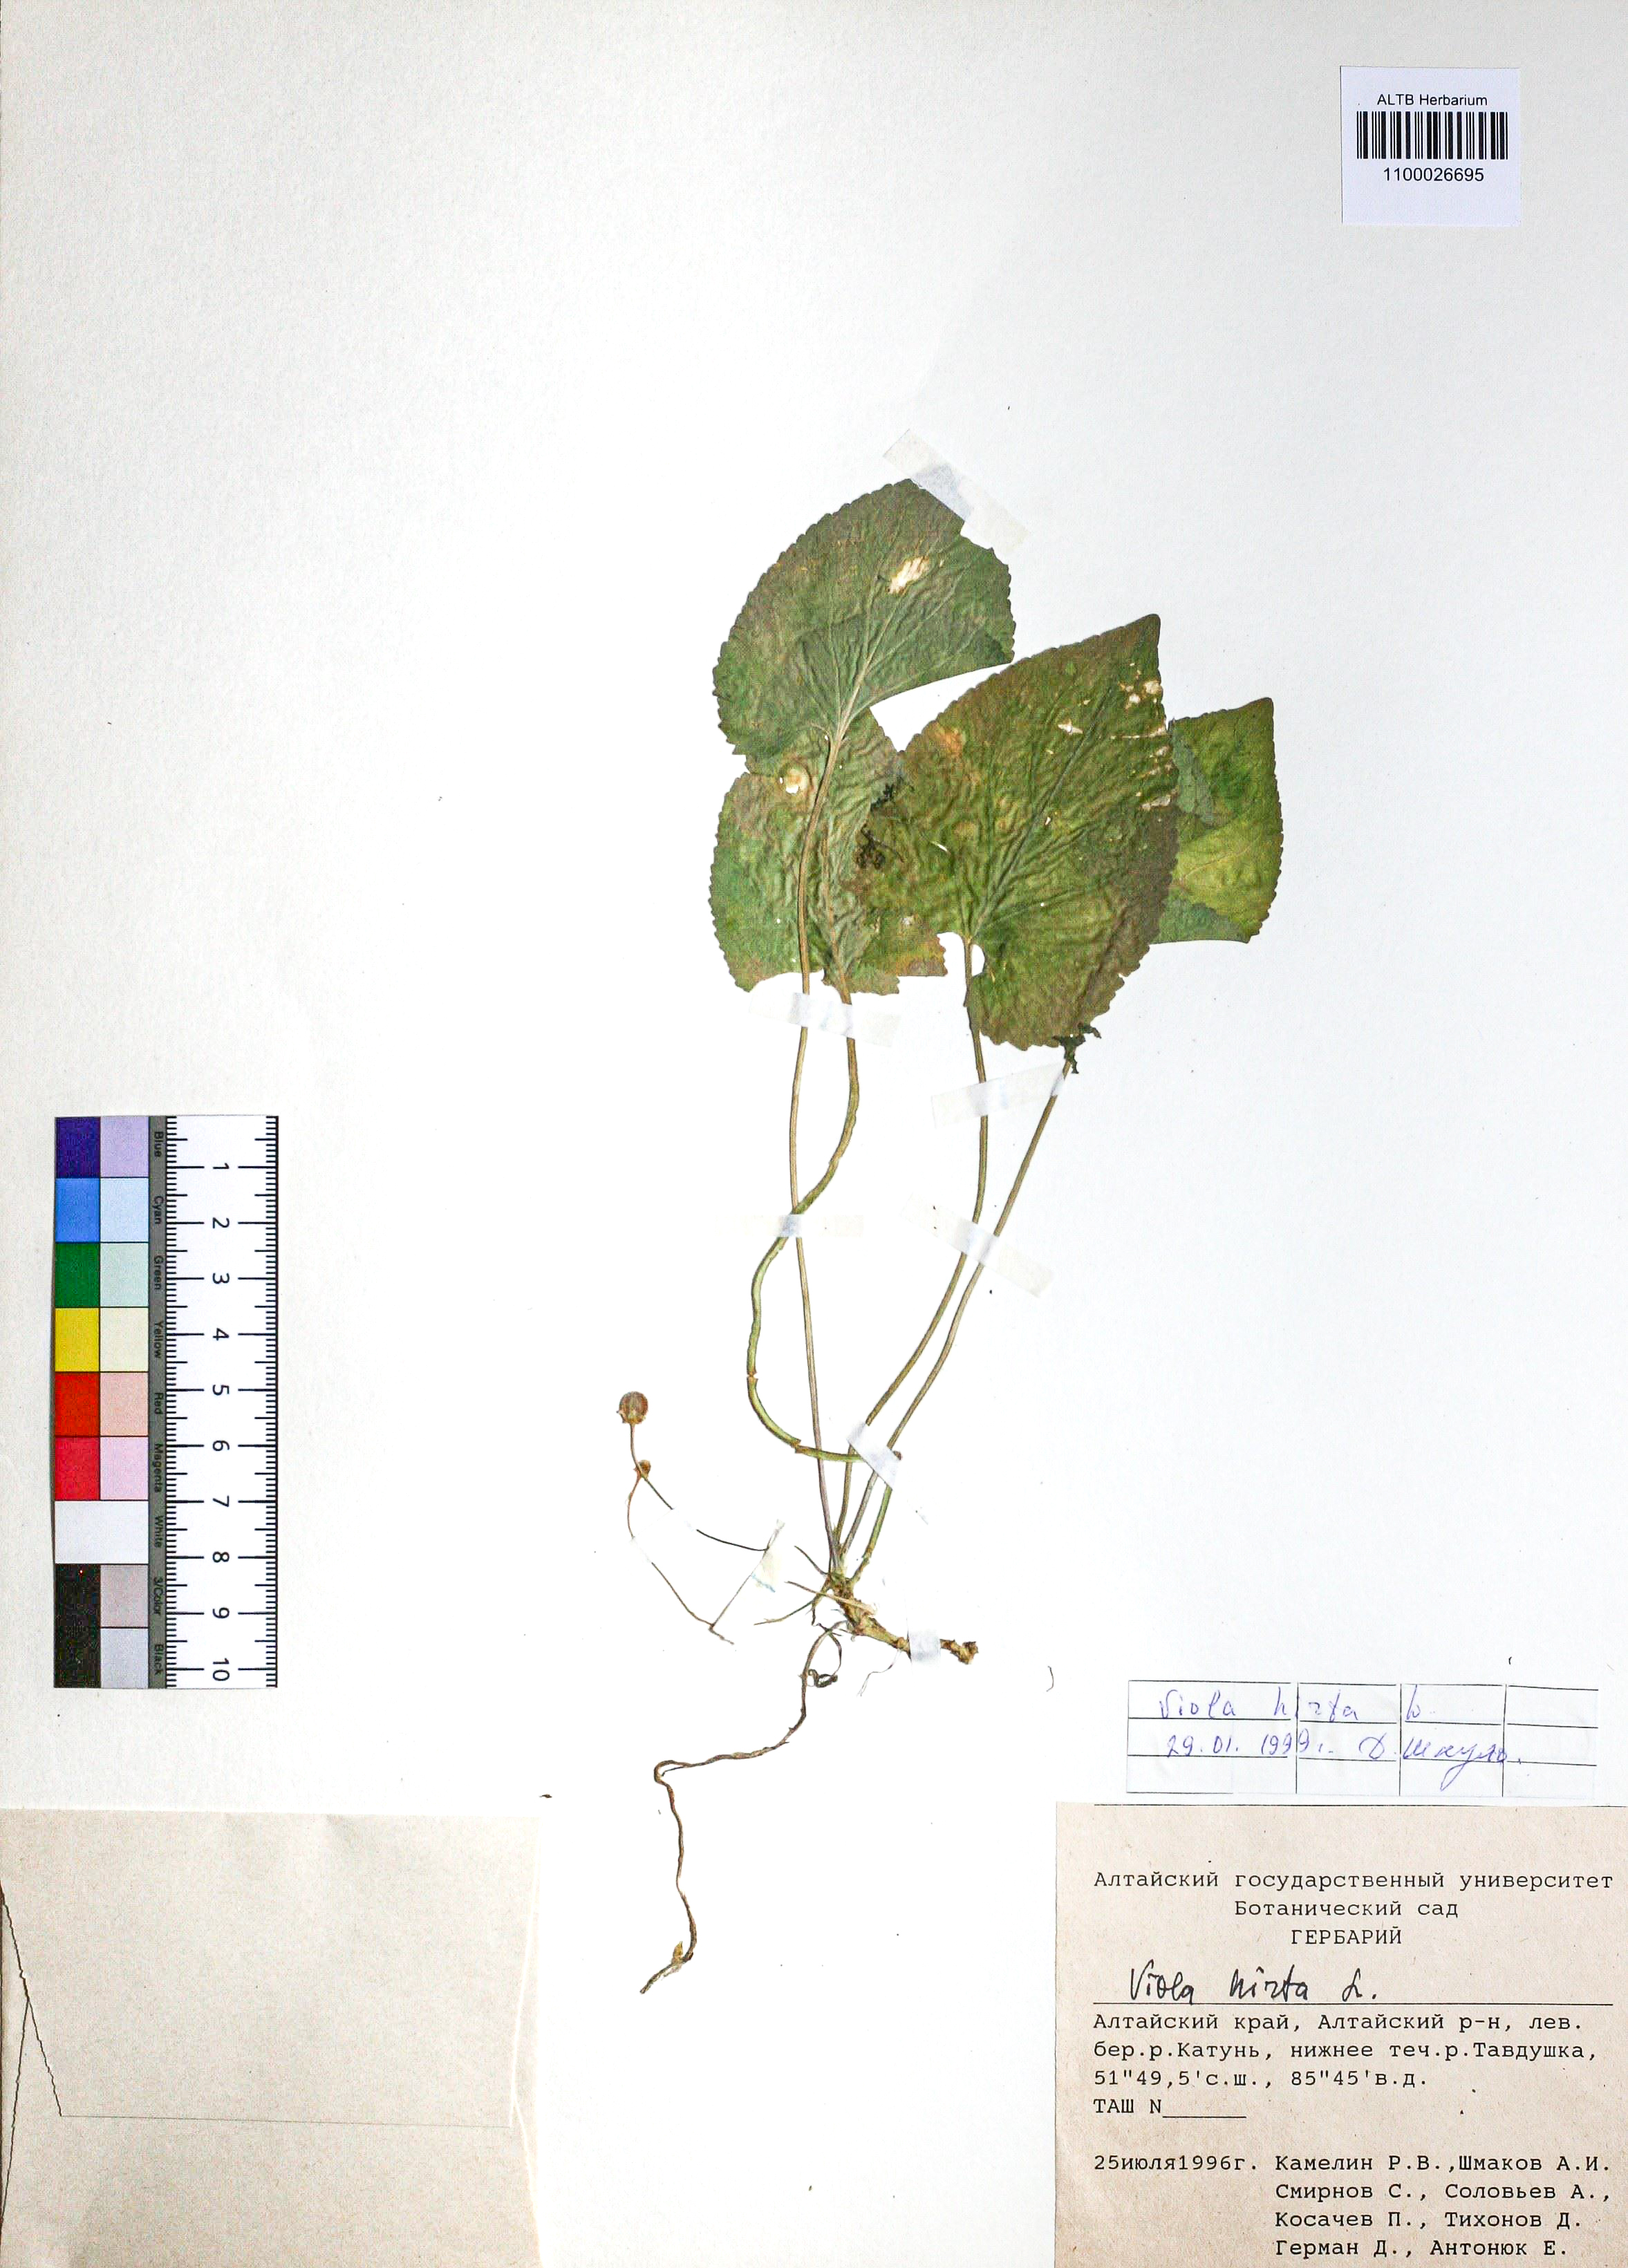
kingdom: Plantae
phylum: Tracheophyta
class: Magnoliopsida
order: Malpighiales
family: Violaceae
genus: Viola
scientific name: Viola hirta
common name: Hairy violet
